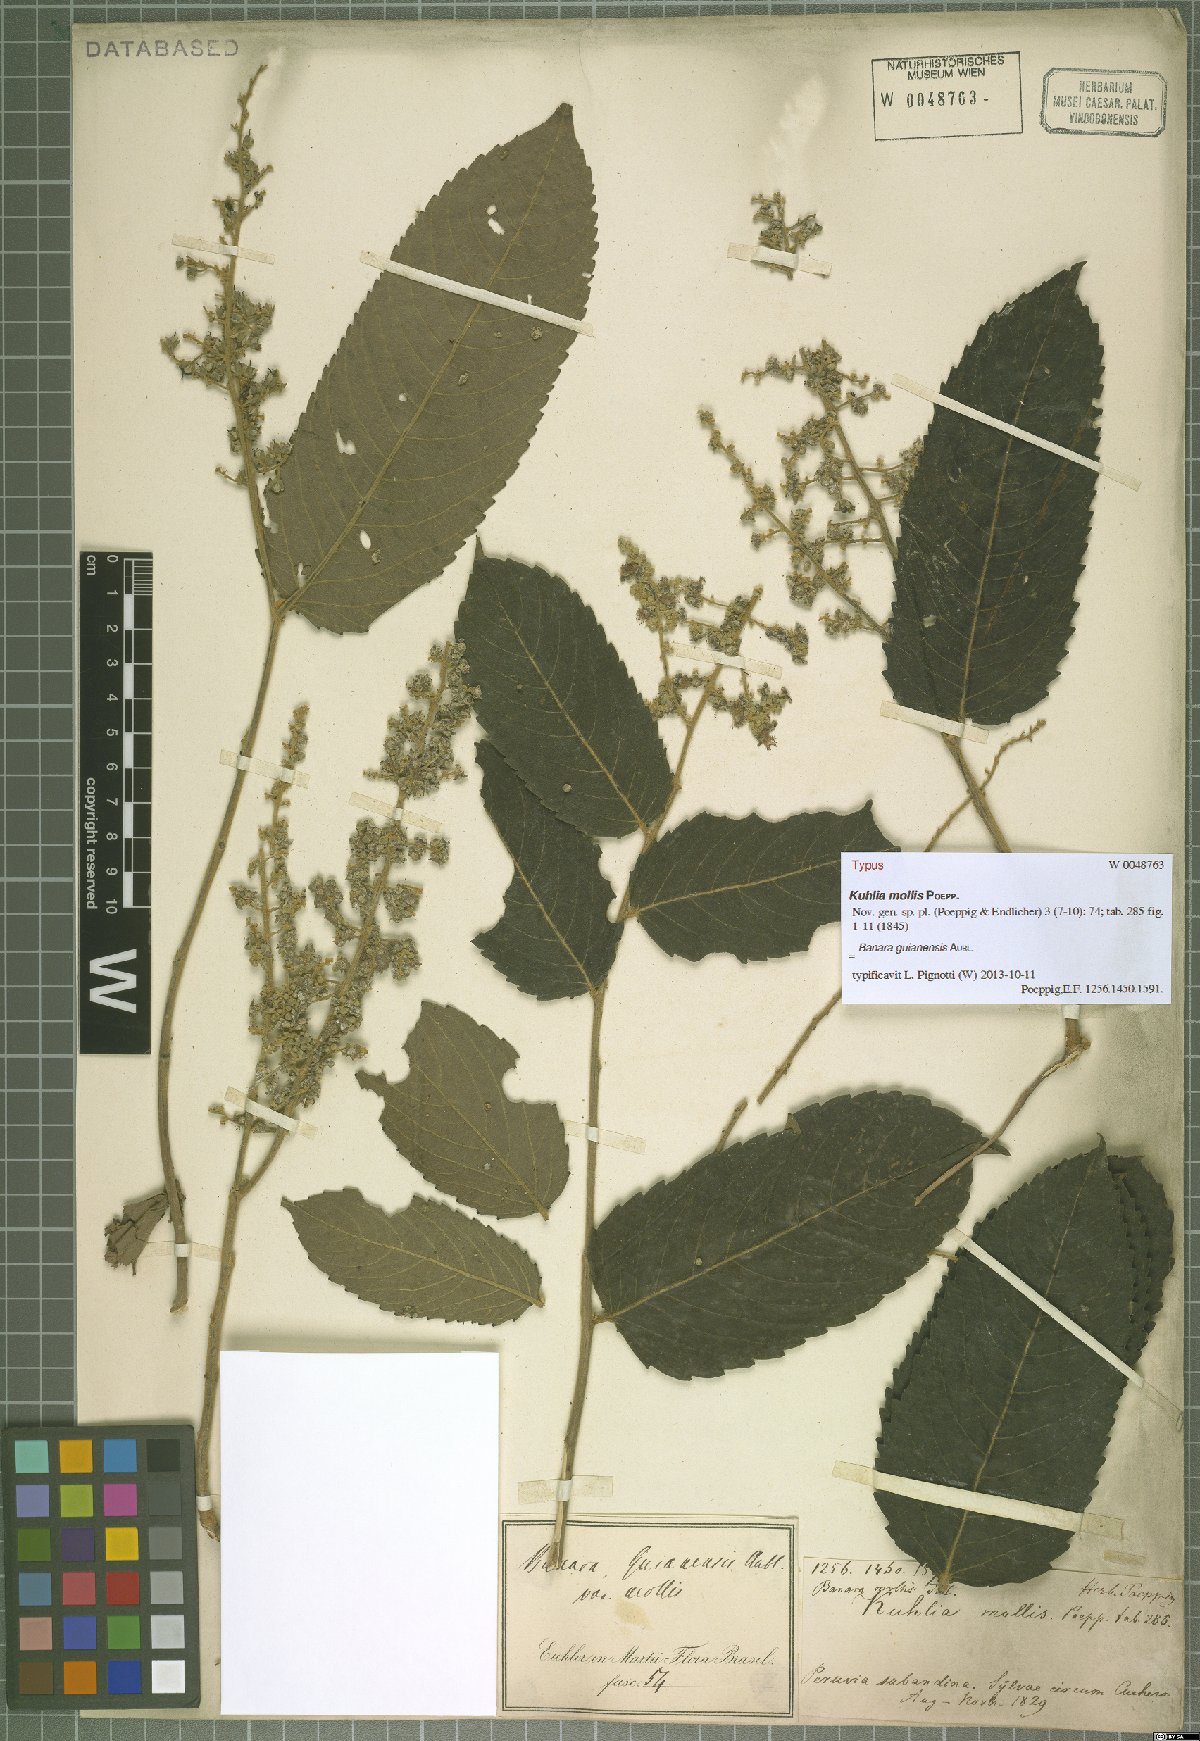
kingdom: Plantae
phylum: Tracheophyta
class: Magnoliopsida
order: Malpighiales
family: Salicaceae
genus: Banara
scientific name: Banara guianensis
